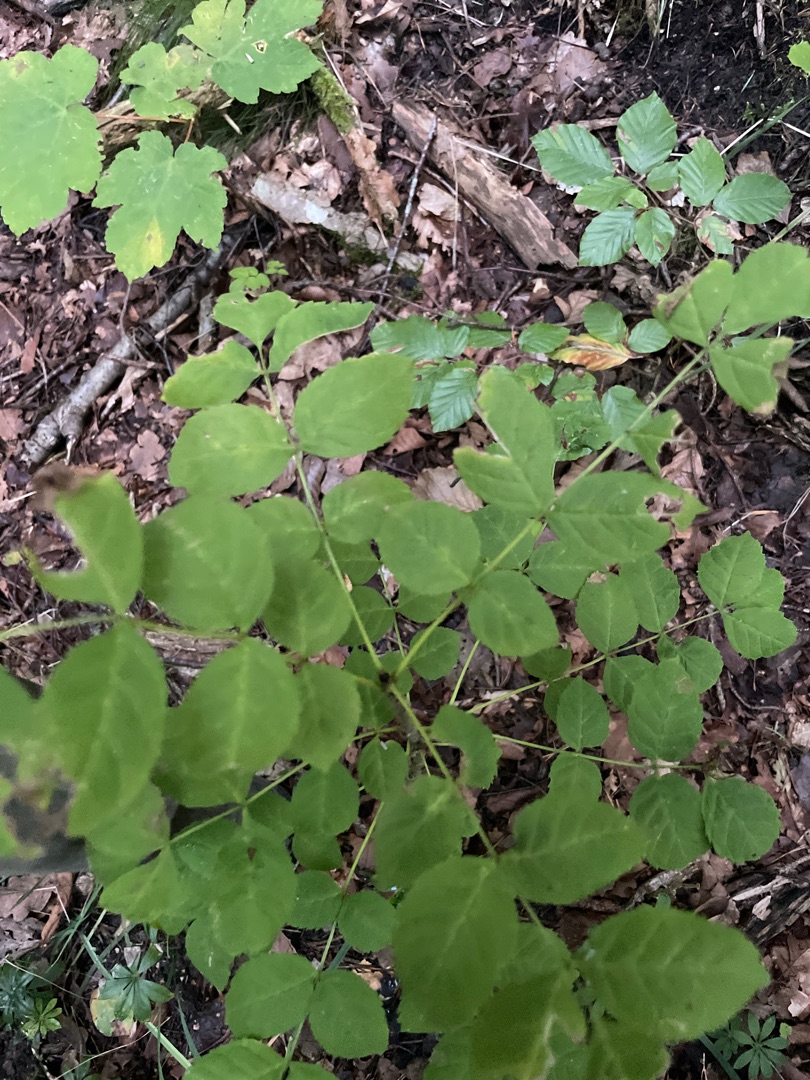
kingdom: Plantae
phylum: Tracheophyta
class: Magnoliopsida
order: Lamiales
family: Oleaceae
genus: Fraxinus
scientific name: Fraxinus excelsior
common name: Ask
